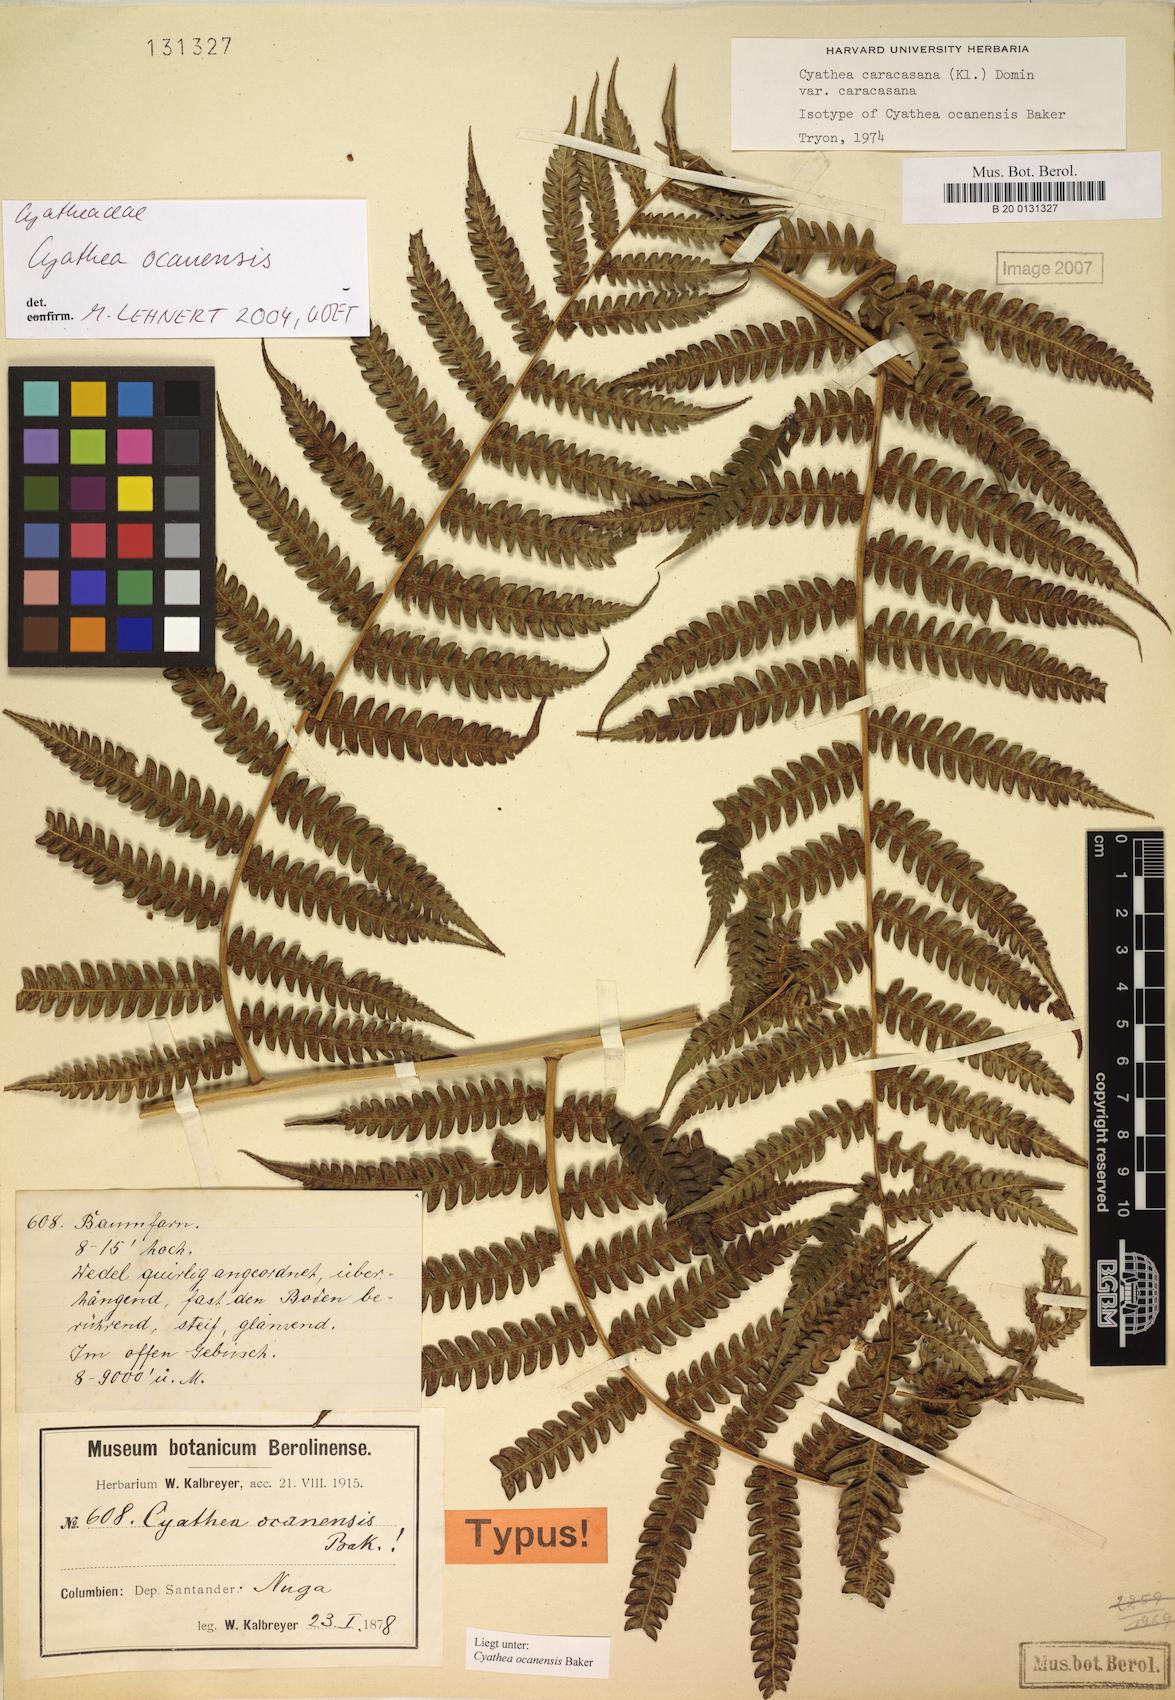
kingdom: Plantae
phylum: Tracheophyta
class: Polypodiopsida
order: Cyatheales
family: Cyatheaceae
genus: Cyathea
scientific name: Cyathea caracasana
